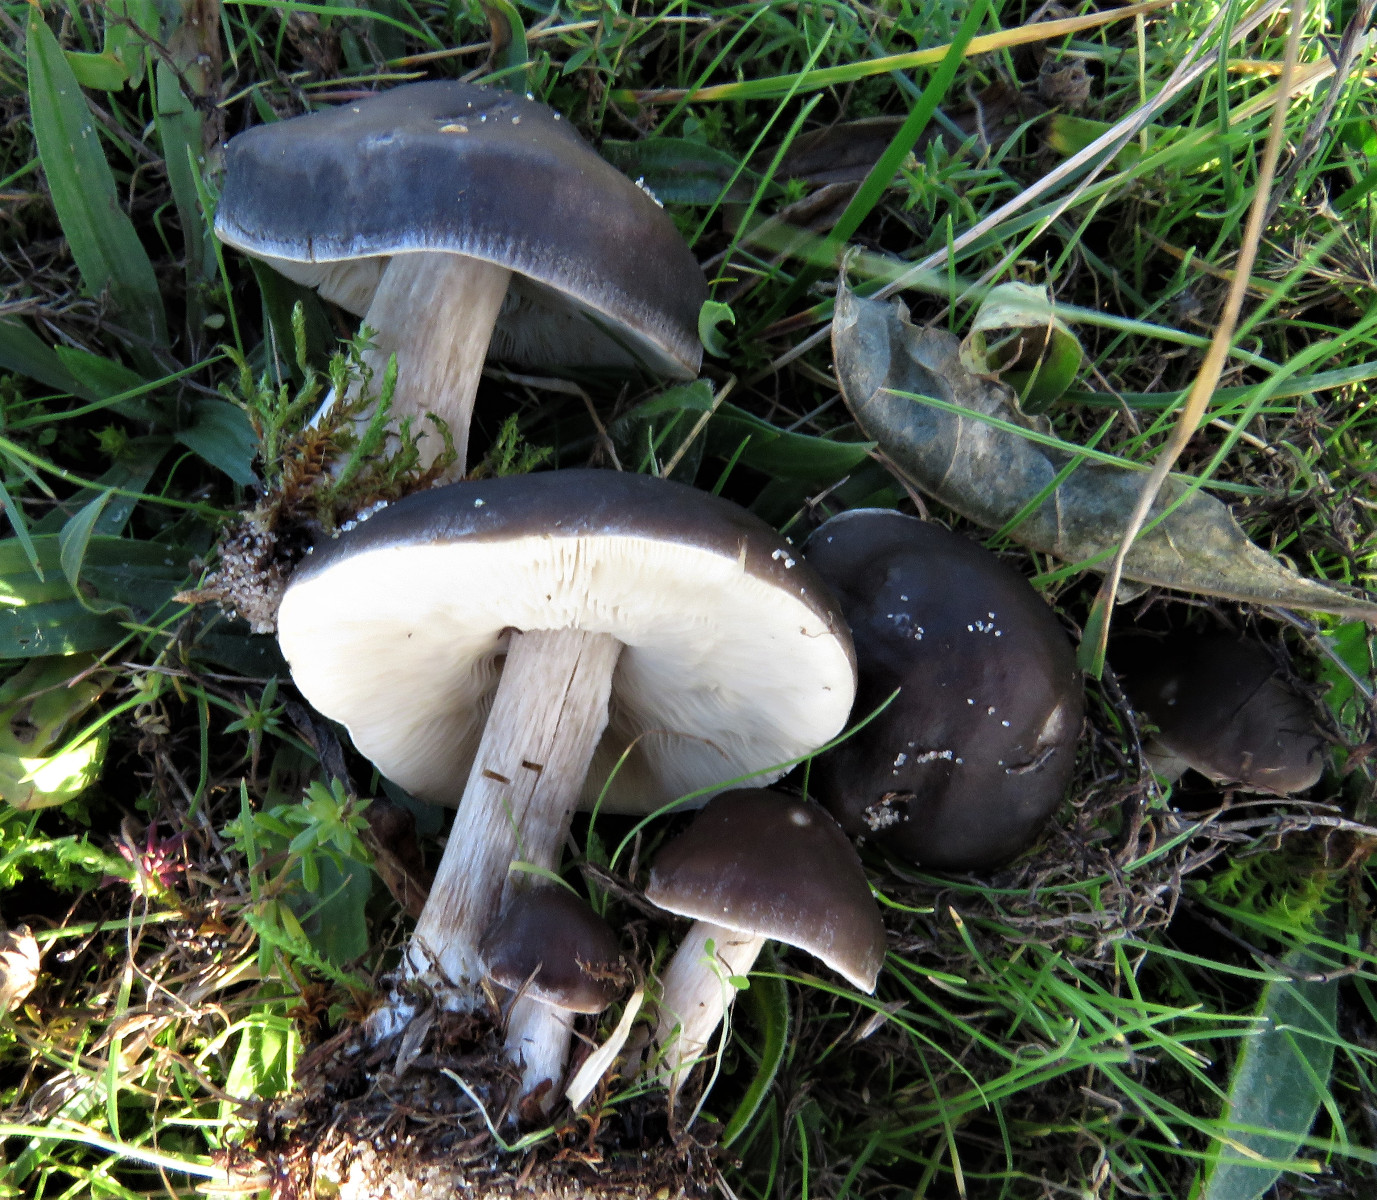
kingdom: Fungi
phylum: Basidiomycota
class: Agaricomycetes
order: Agaricales
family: Tricholomataceae
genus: Melanoleuca
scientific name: Melanoleuca
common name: munkehat
